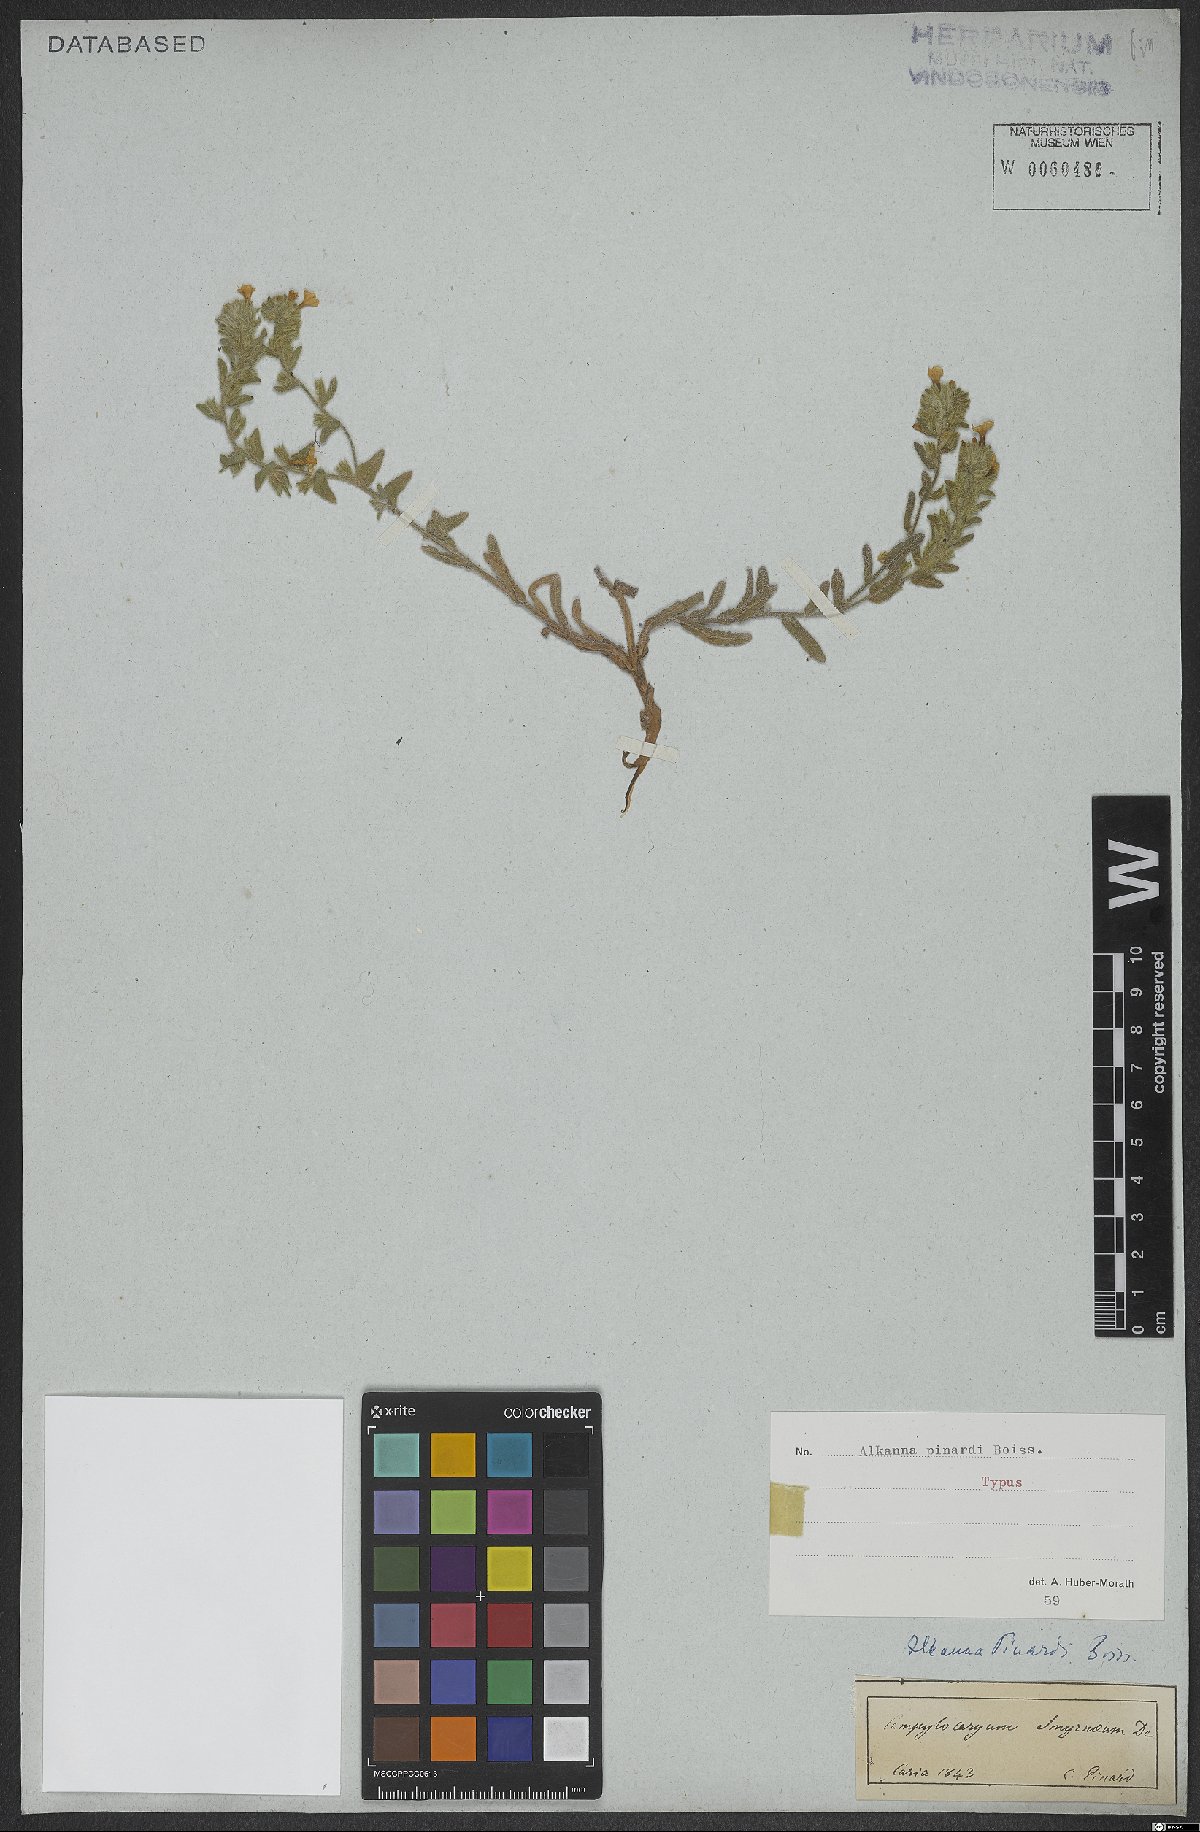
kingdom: Plantae
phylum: Tracheophyta
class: Magnoliopsida
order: Boraginales
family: Boraginaceae
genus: Alkanna
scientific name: Alkanna pinardii
